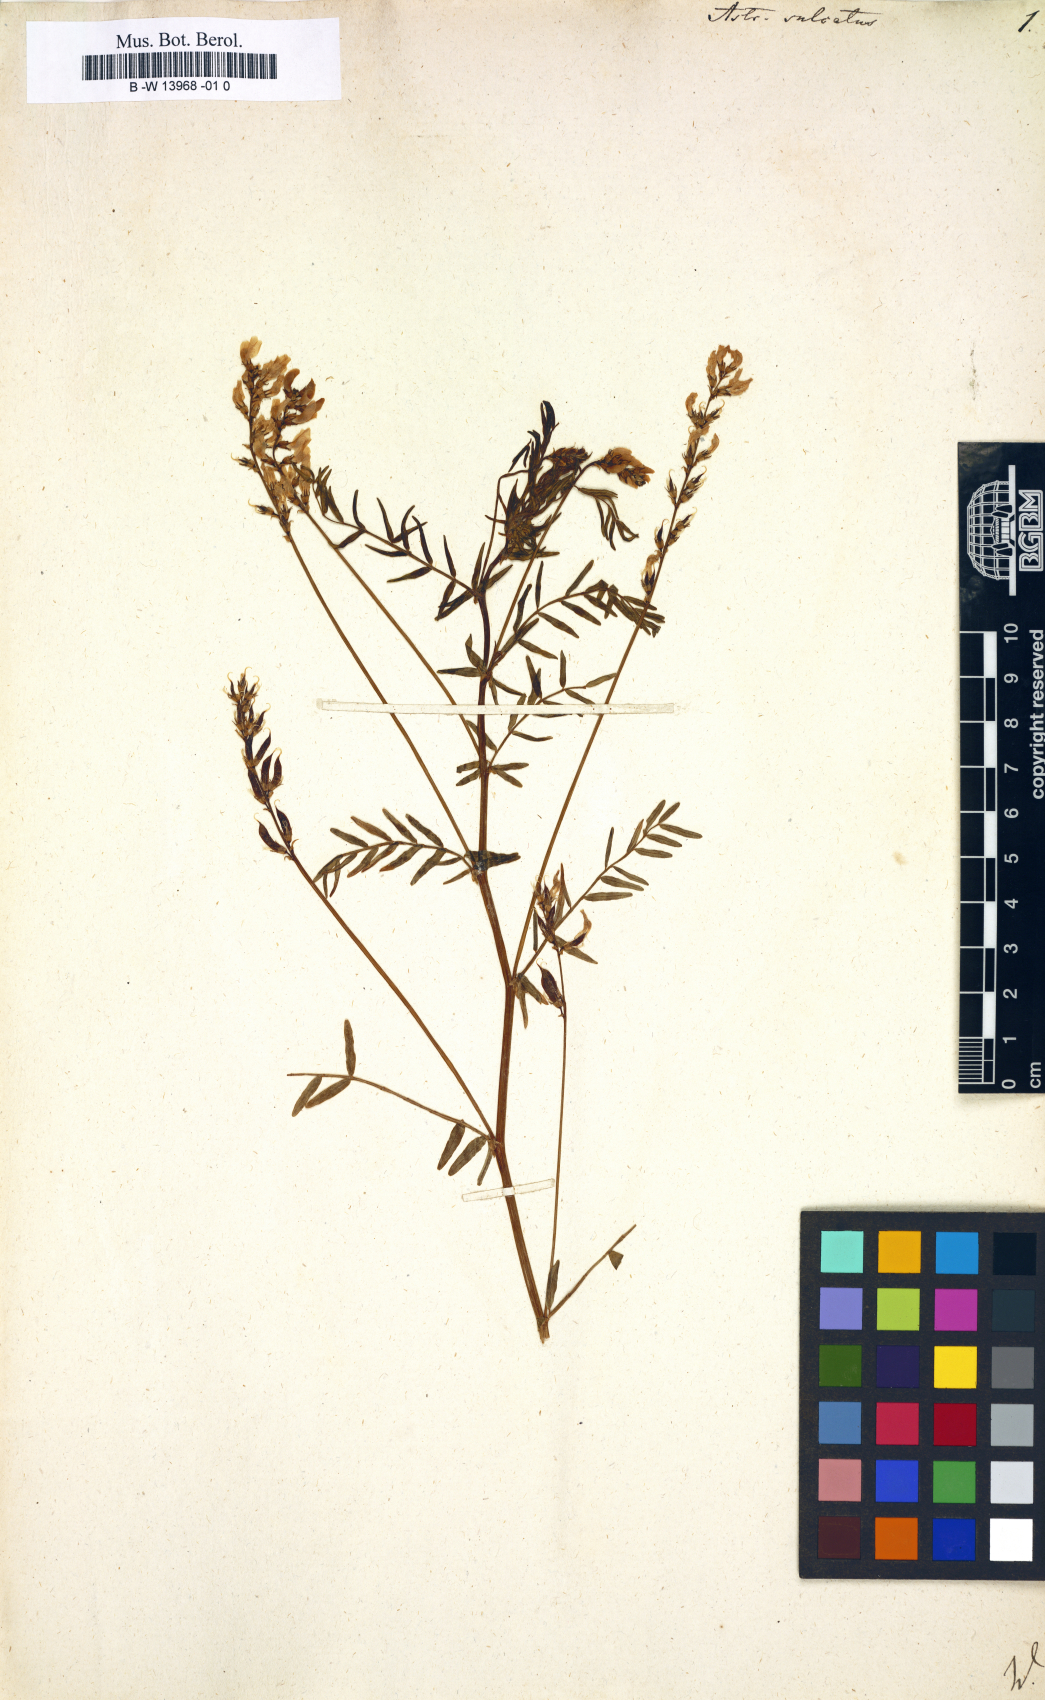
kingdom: Plantae
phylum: Tracheophyta
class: Magnoliopsida
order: Fabales
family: Fabaceae
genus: Astragalus
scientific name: Astragalus sulcatus
